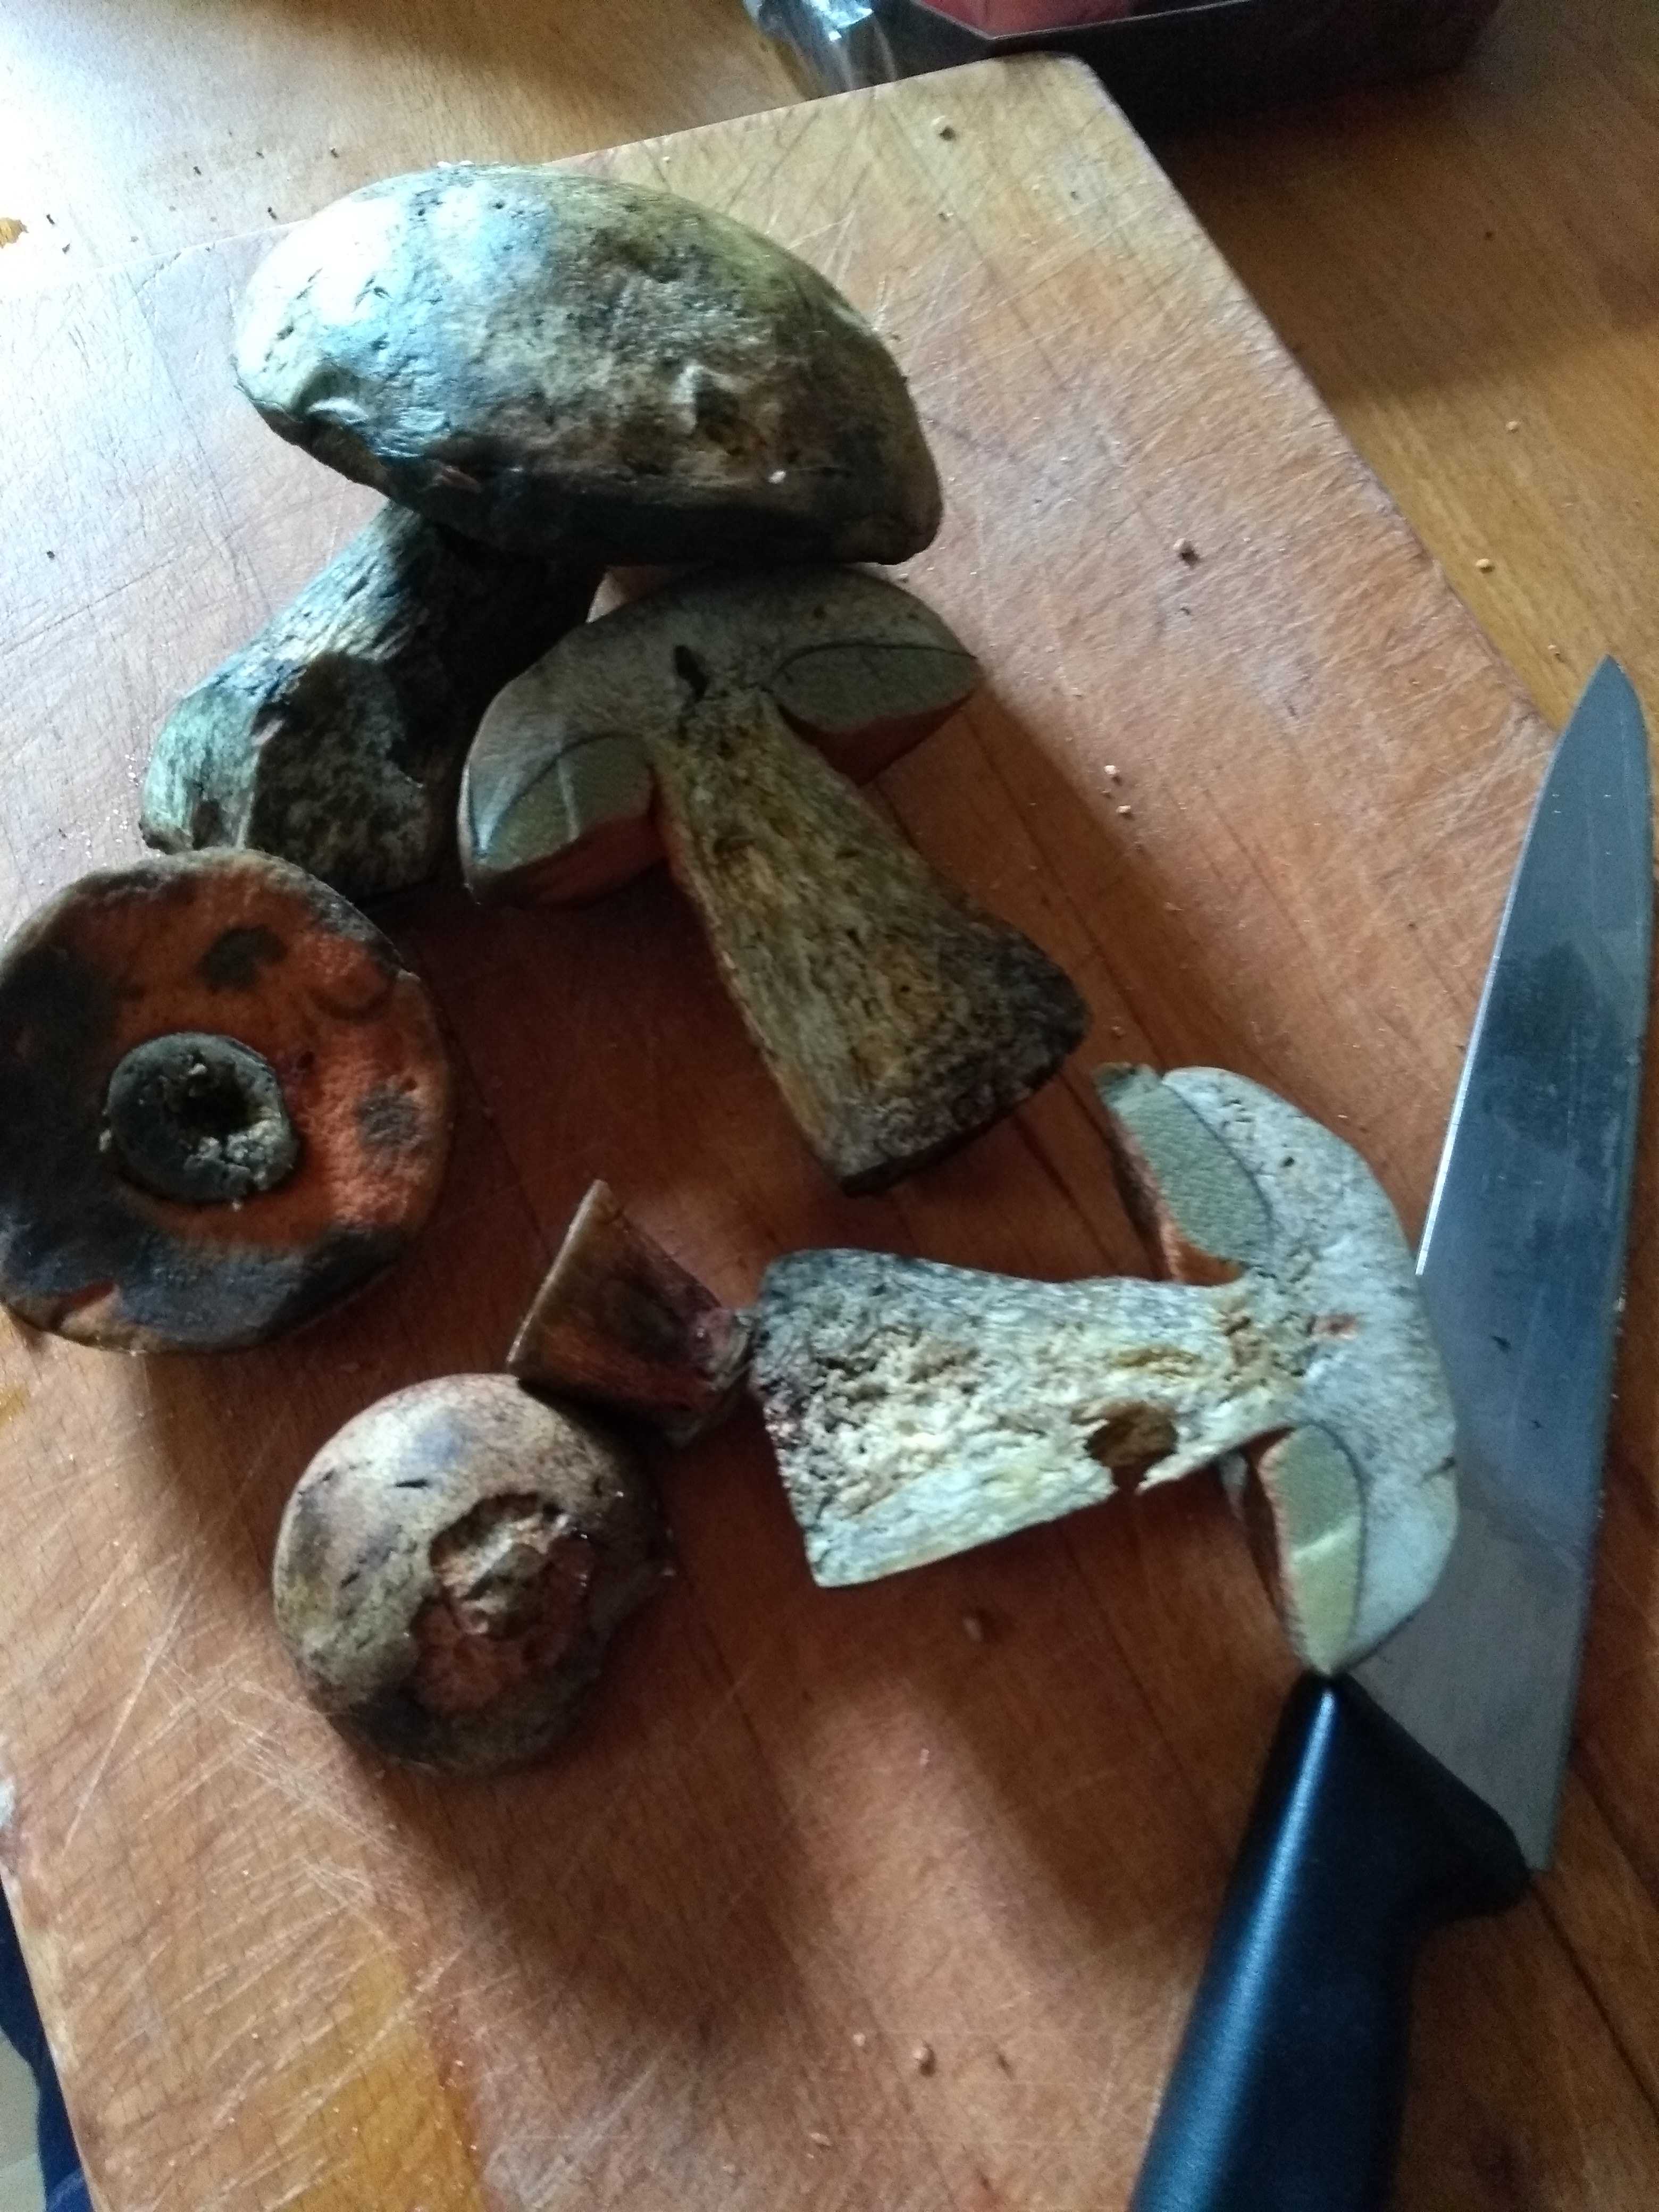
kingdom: Fungi
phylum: Basidiomycota
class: Agaricomycetes
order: Boletales
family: Boletaceae
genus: Suillellus
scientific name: Suillellus luridus
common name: netstokket indigorørhat
